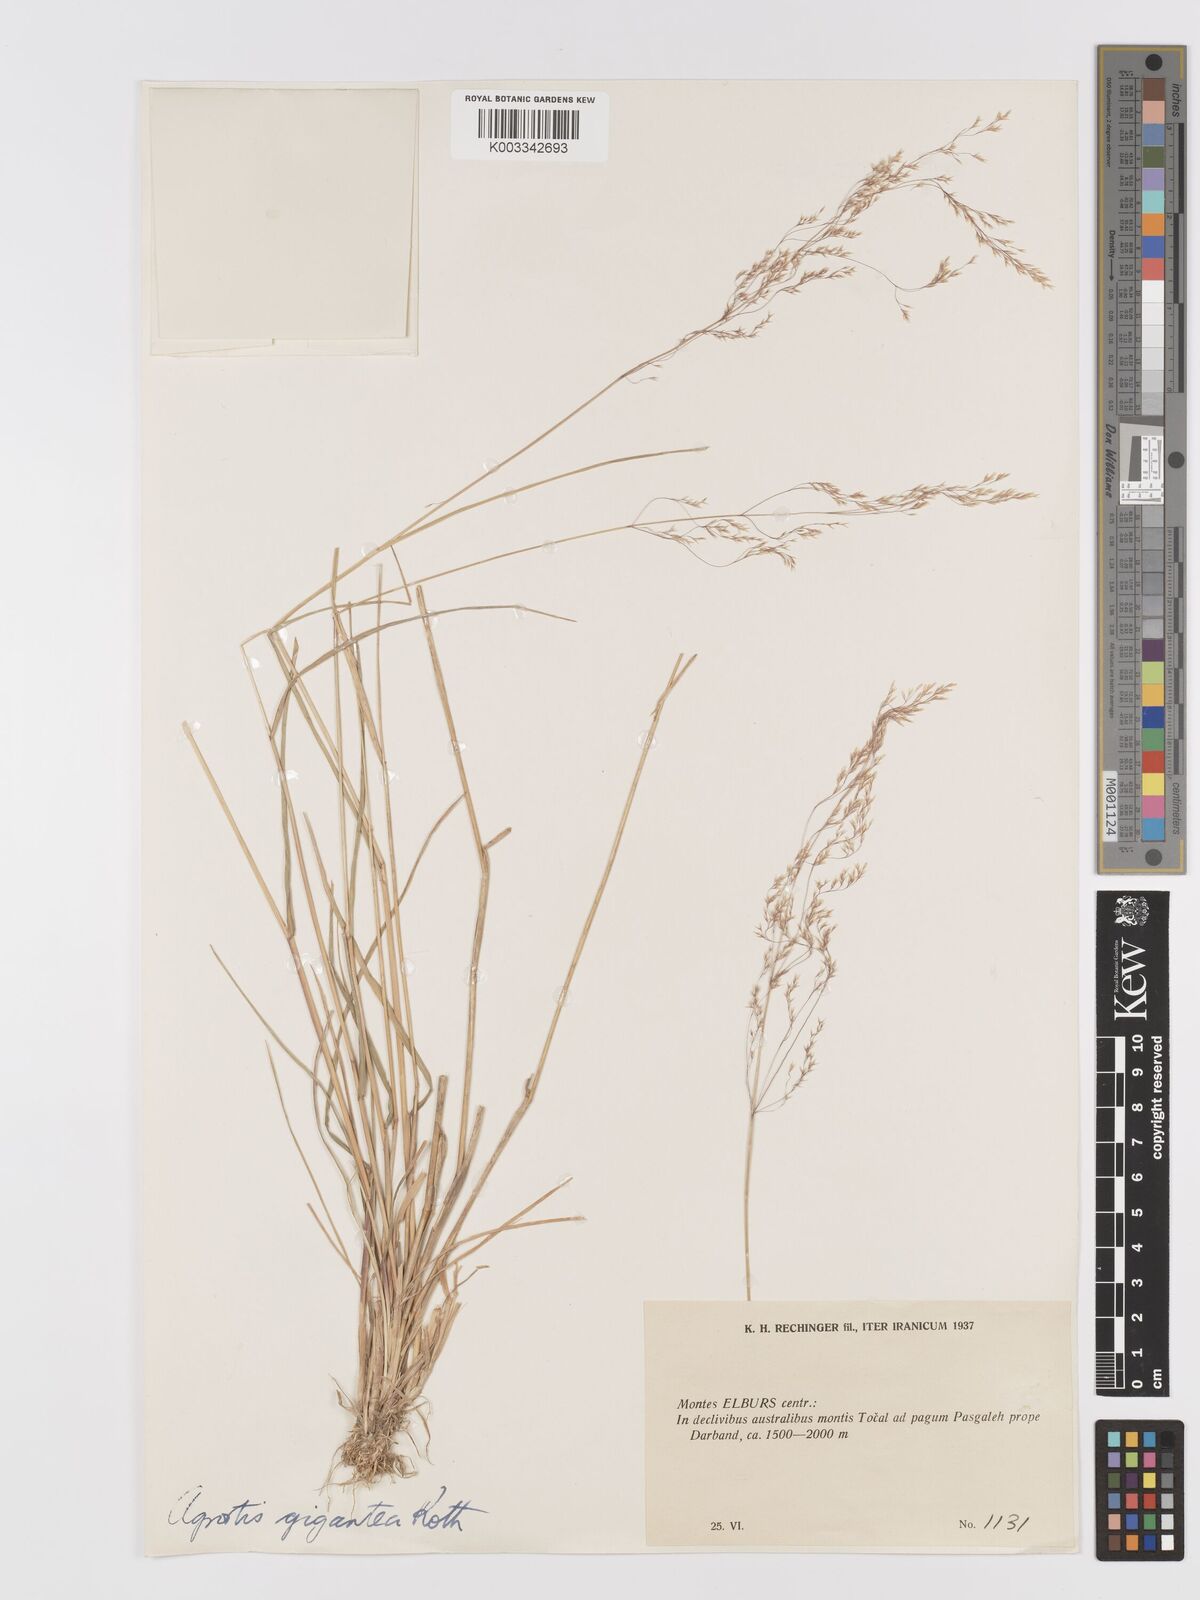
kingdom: Plantae
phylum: Tracheophyta
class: Liliopsida
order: Poales
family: Poaceae
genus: Agrostis
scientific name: Agrostis gigantea
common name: Black bent
